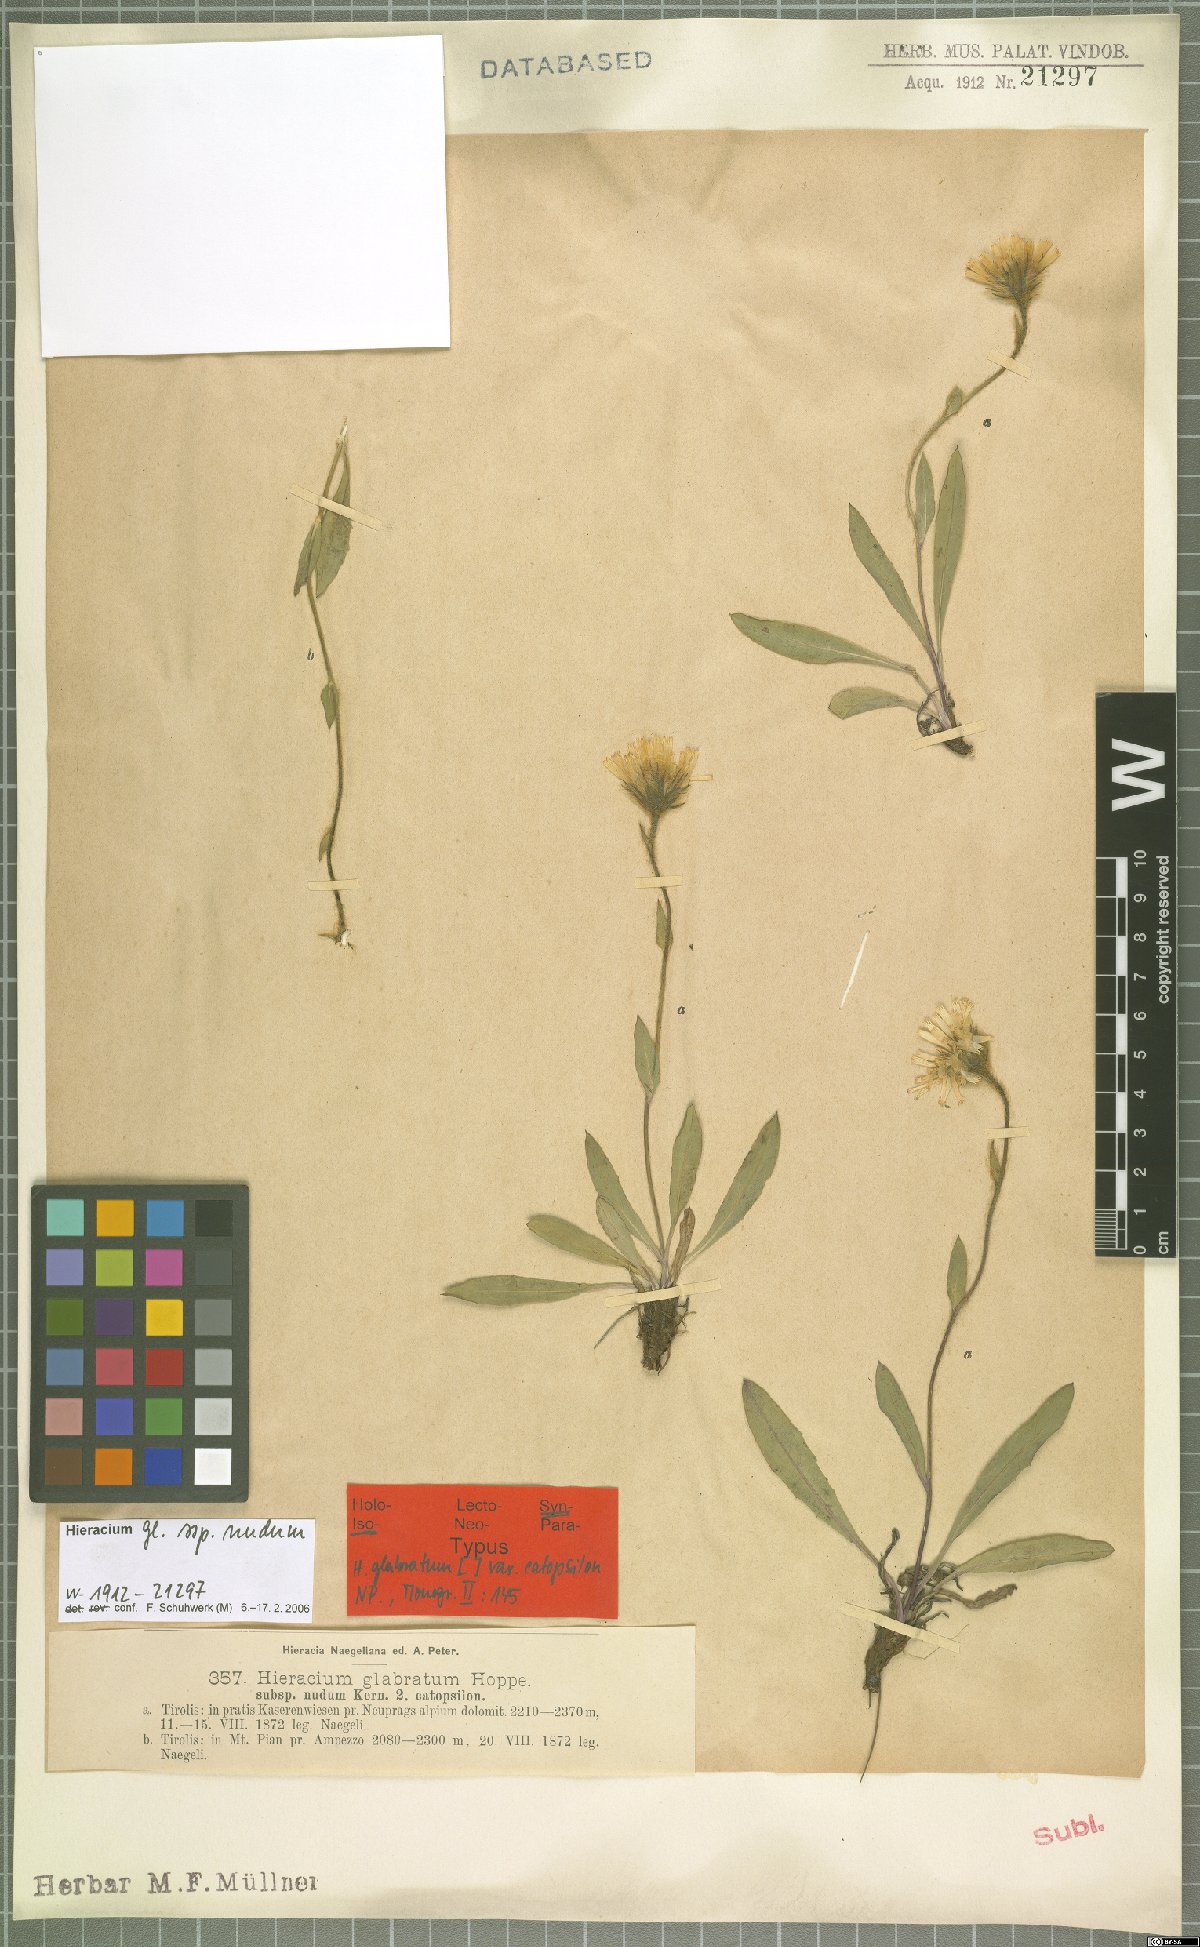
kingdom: Plantae
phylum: Tracheophyta
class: Magnoliopsida
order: Asterales
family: Asteraceae
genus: Hieracium
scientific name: Hieracium glabratum
